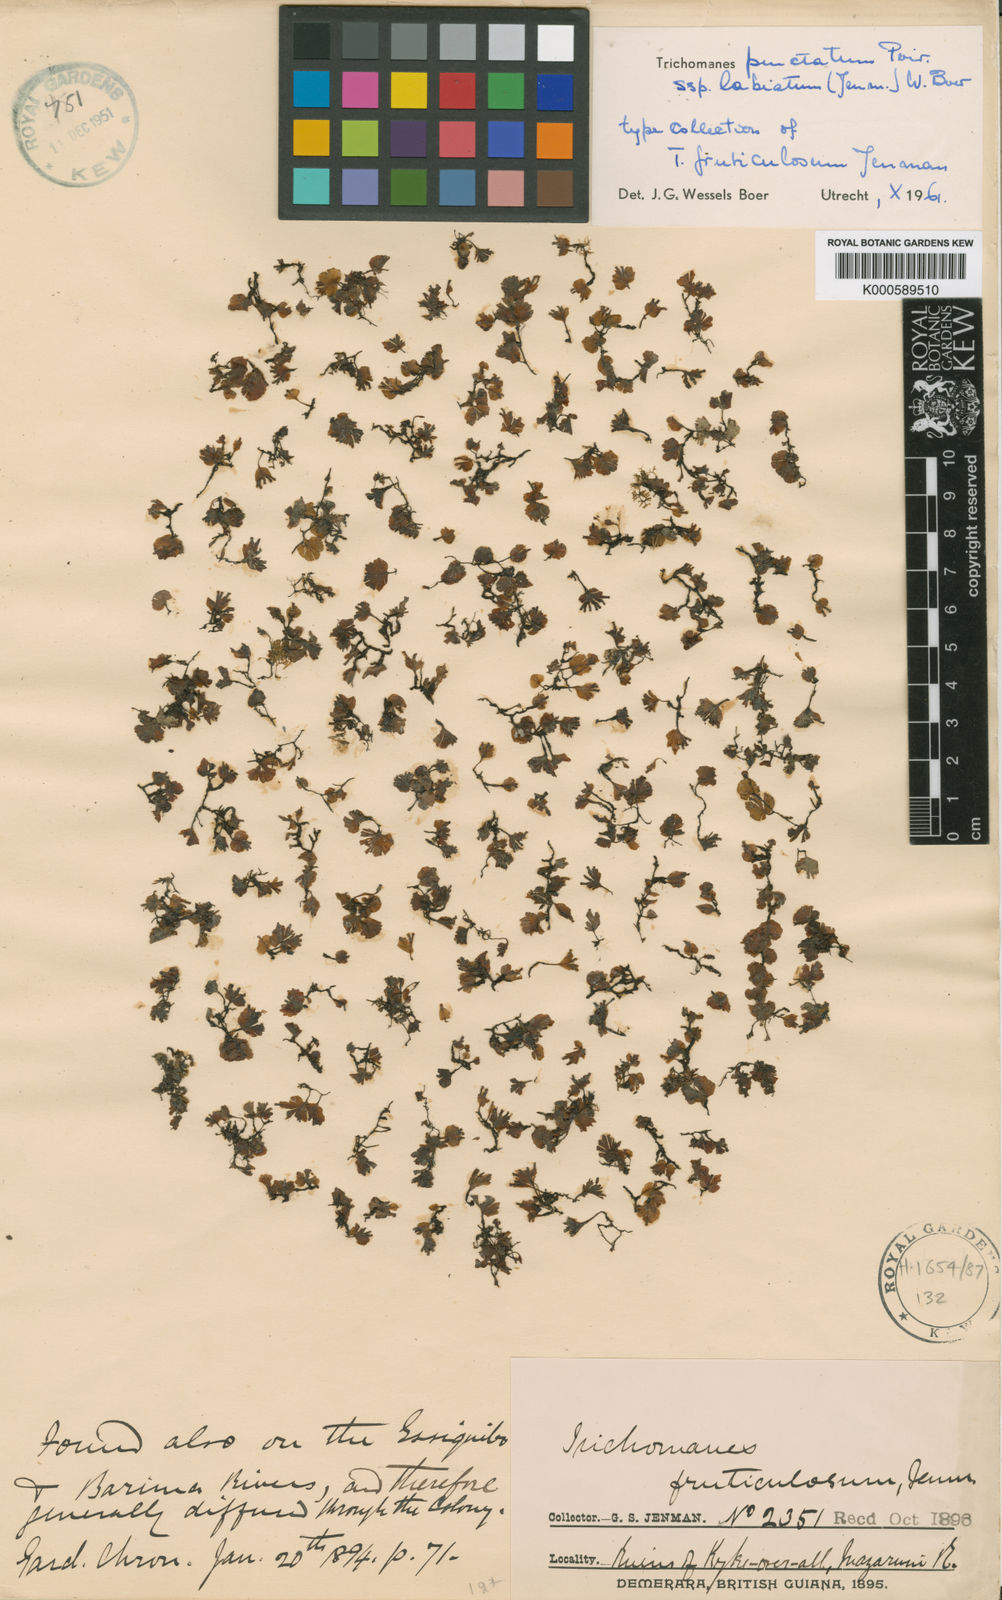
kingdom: Plantae
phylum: Tracheophyta
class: Polypodiopsida
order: Hymenophyllales
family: Hymenophyllaceae
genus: Didymoglossum
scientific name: Didymoglossum punctatum
